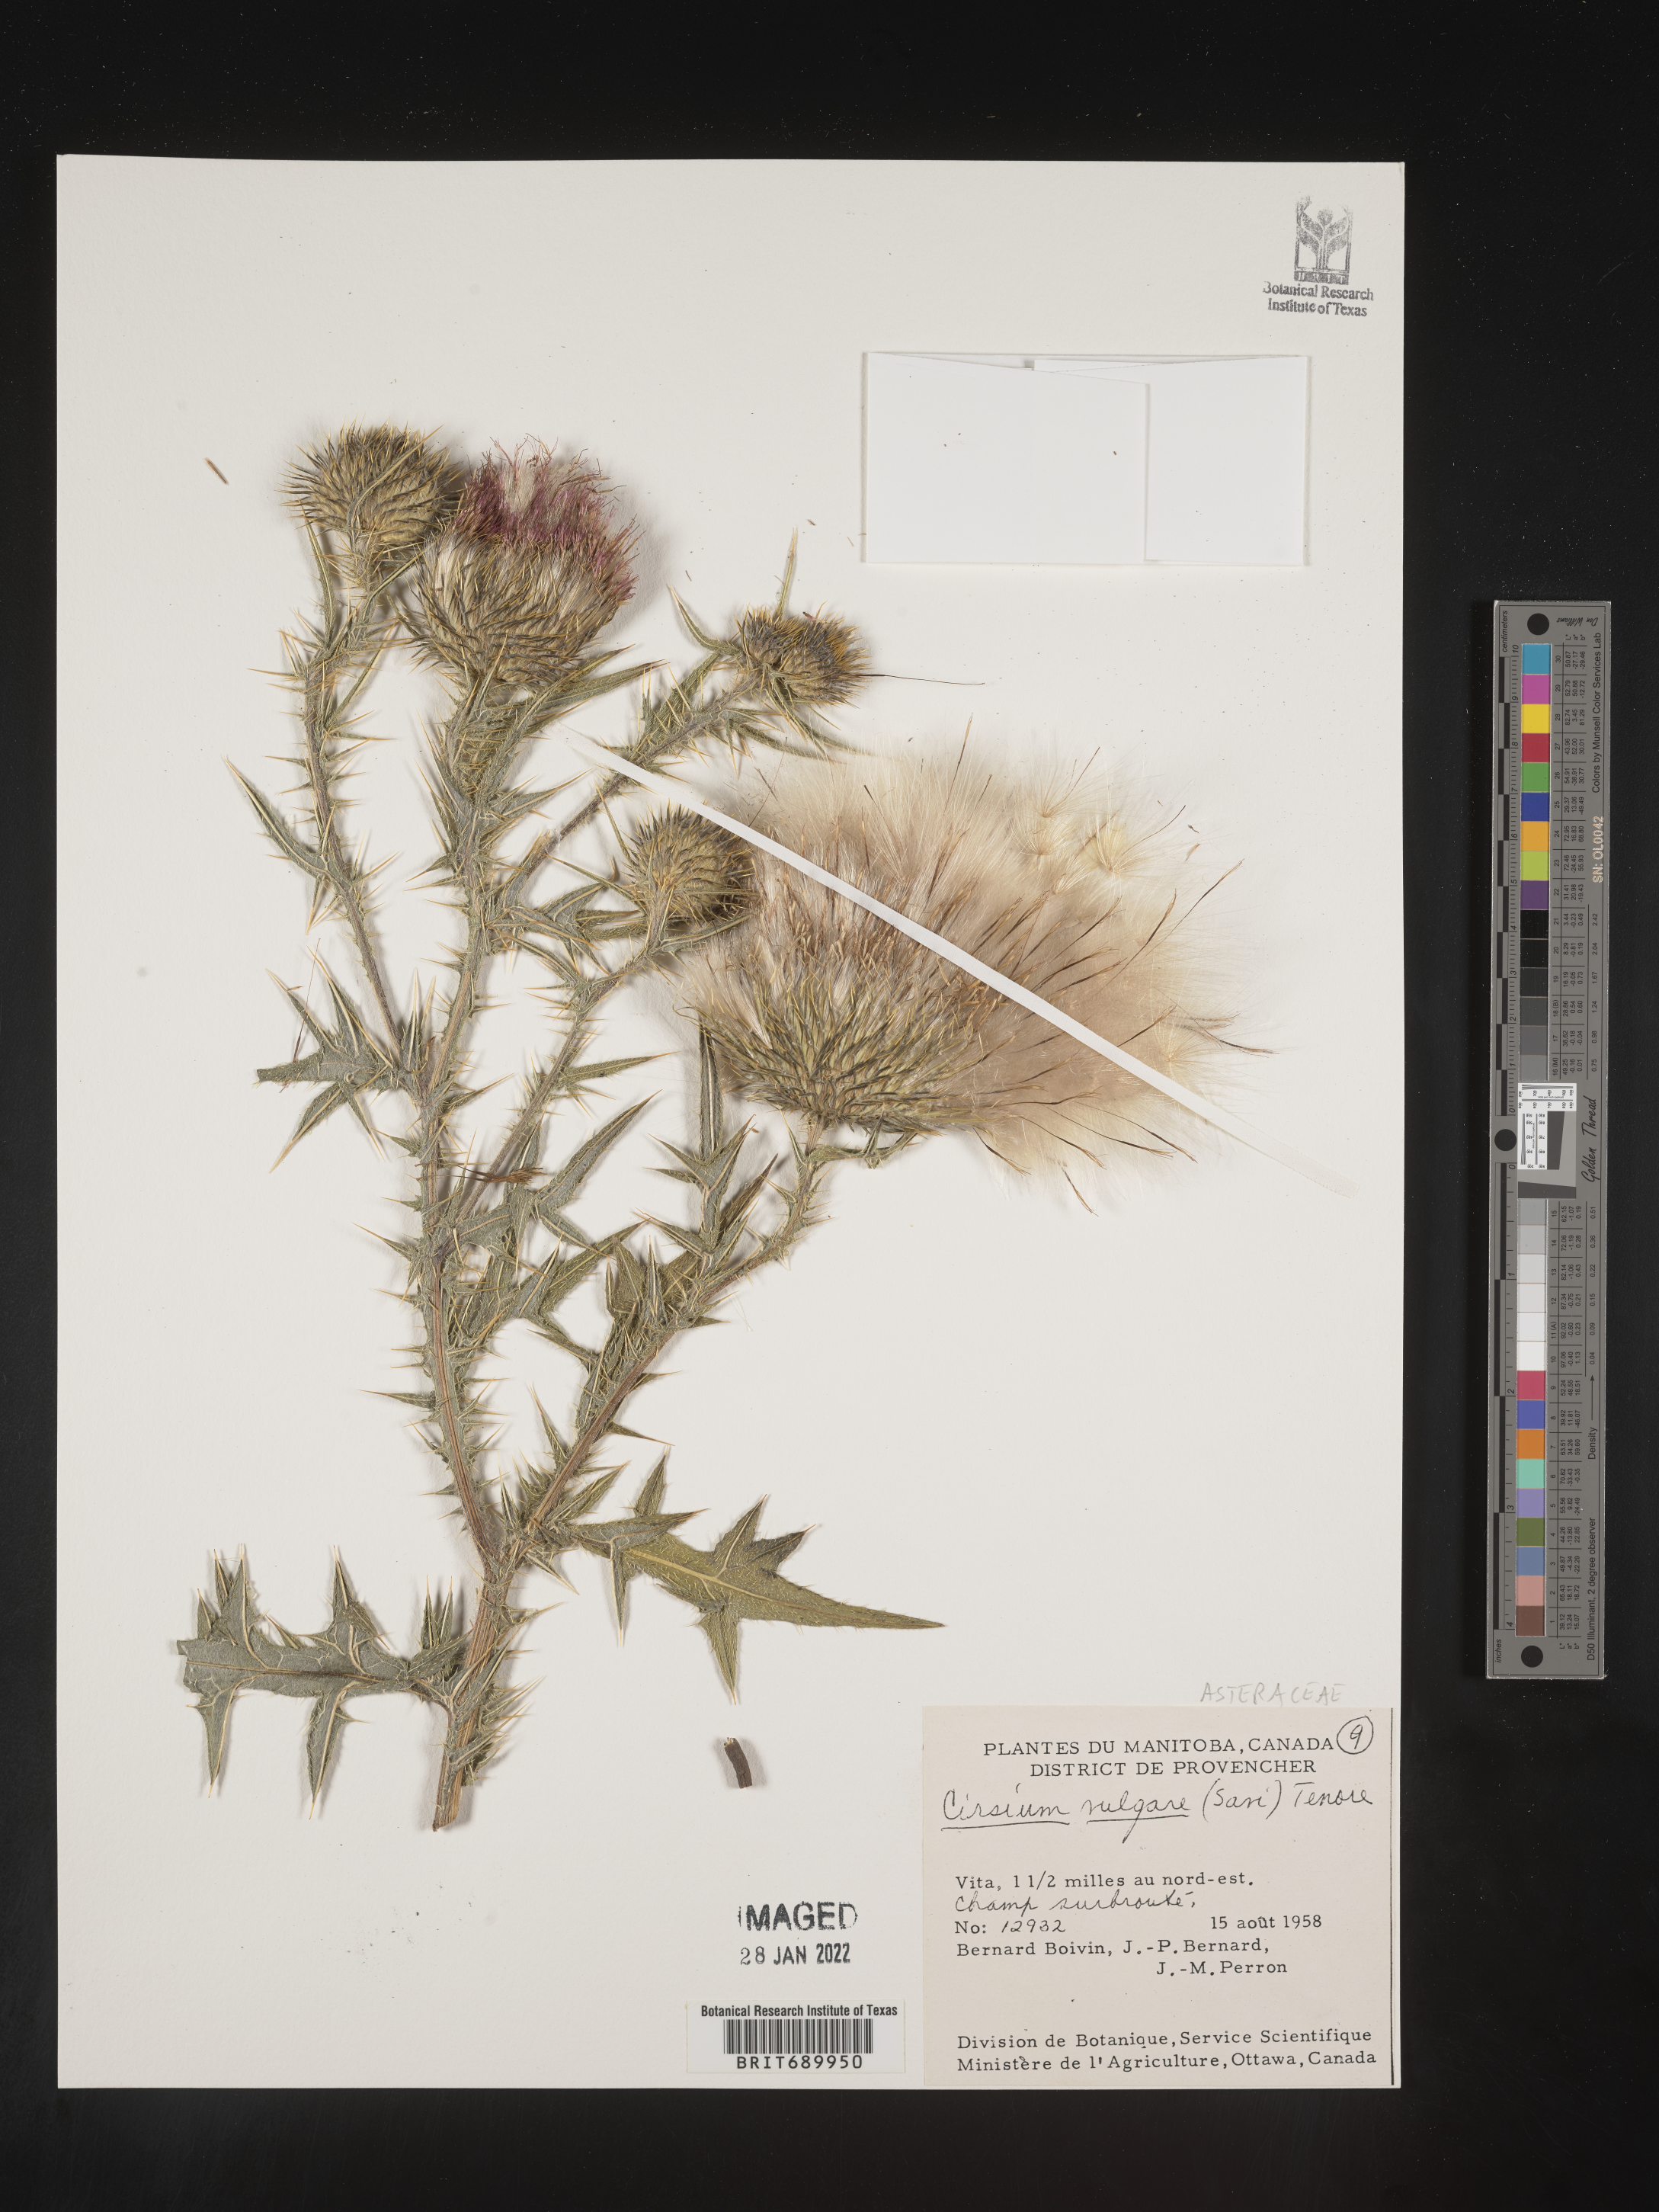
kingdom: Plantae
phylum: Tracheophyta
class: Magnoliopsida
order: Asterales
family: Asteraceae
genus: Cirsium
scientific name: Cirsium wheeleri
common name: Wheeler's thistle
